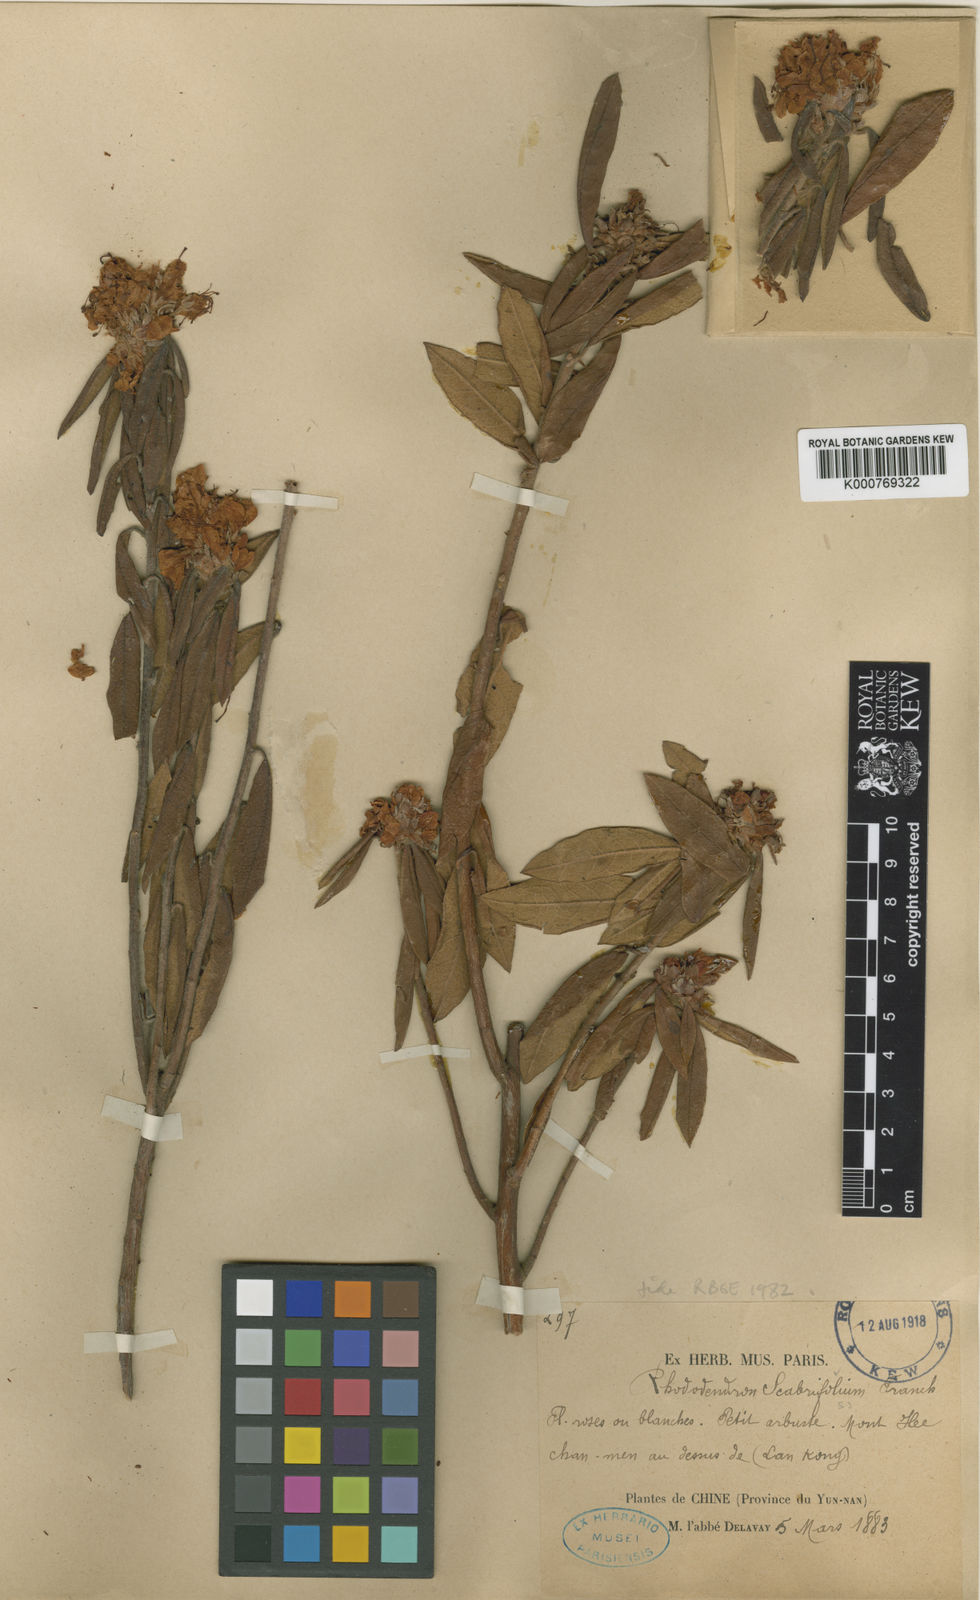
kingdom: Plantae
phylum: Tracheophyta
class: Magnoliopsida
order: Ericales
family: Ericaceae
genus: Rhododendron
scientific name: Rhododendron scabrifolium
